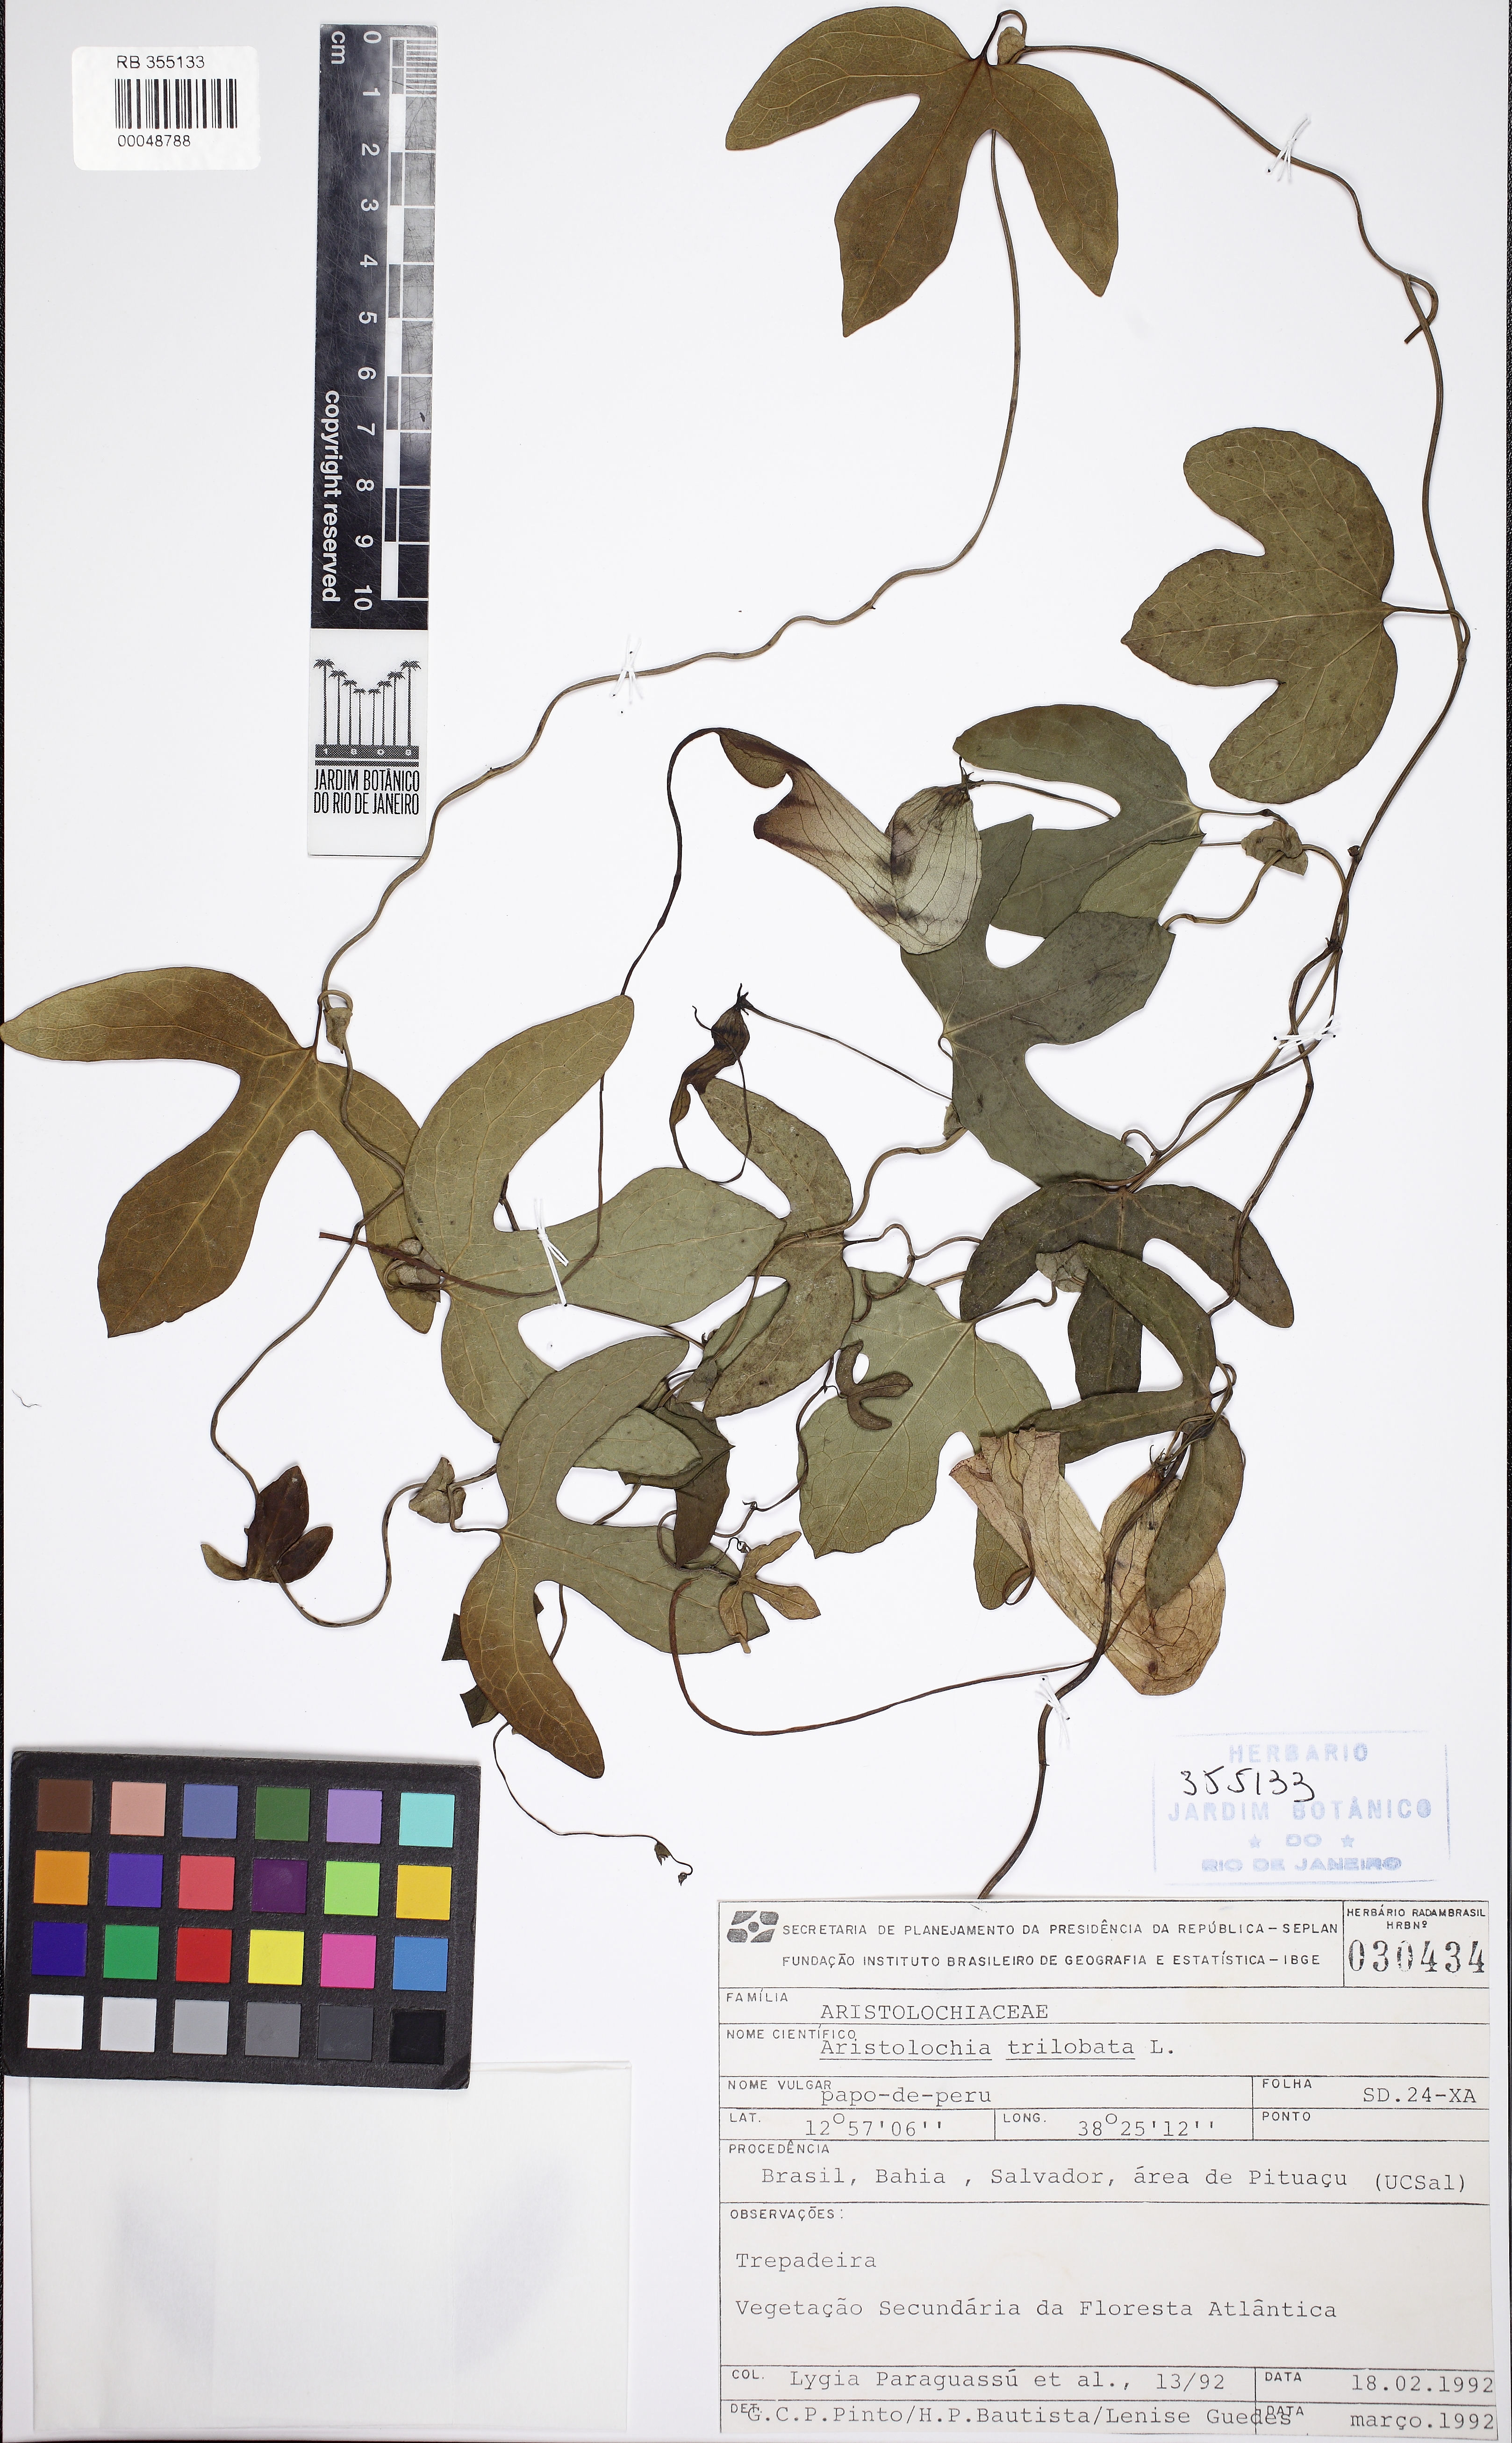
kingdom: Plantae
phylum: Tracheophyta
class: Magnoliopsida
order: Piperales
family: Aristolochiaceae
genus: Aristolochia
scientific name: Aristolochia trilobata
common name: Dutchman's pipe
